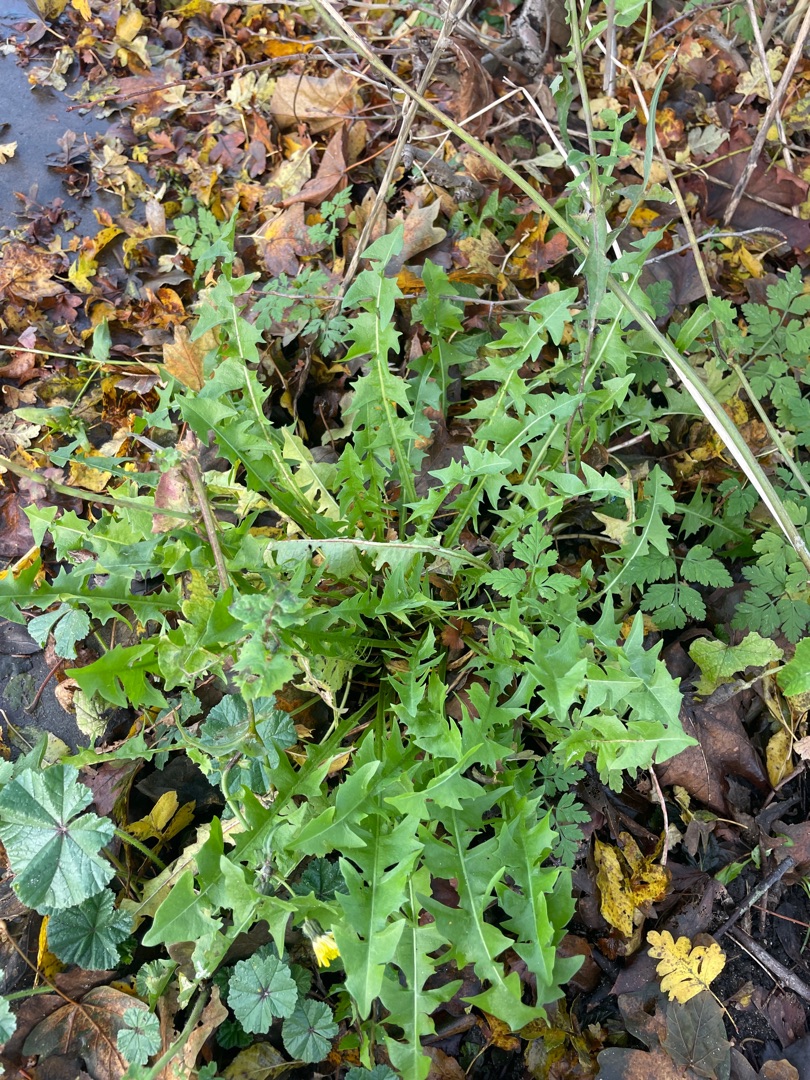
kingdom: Plantae
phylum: Tracheophyta
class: Magnoliopsida
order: Asterales
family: Asteraceae
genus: Taraxacum
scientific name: Taraxacum
